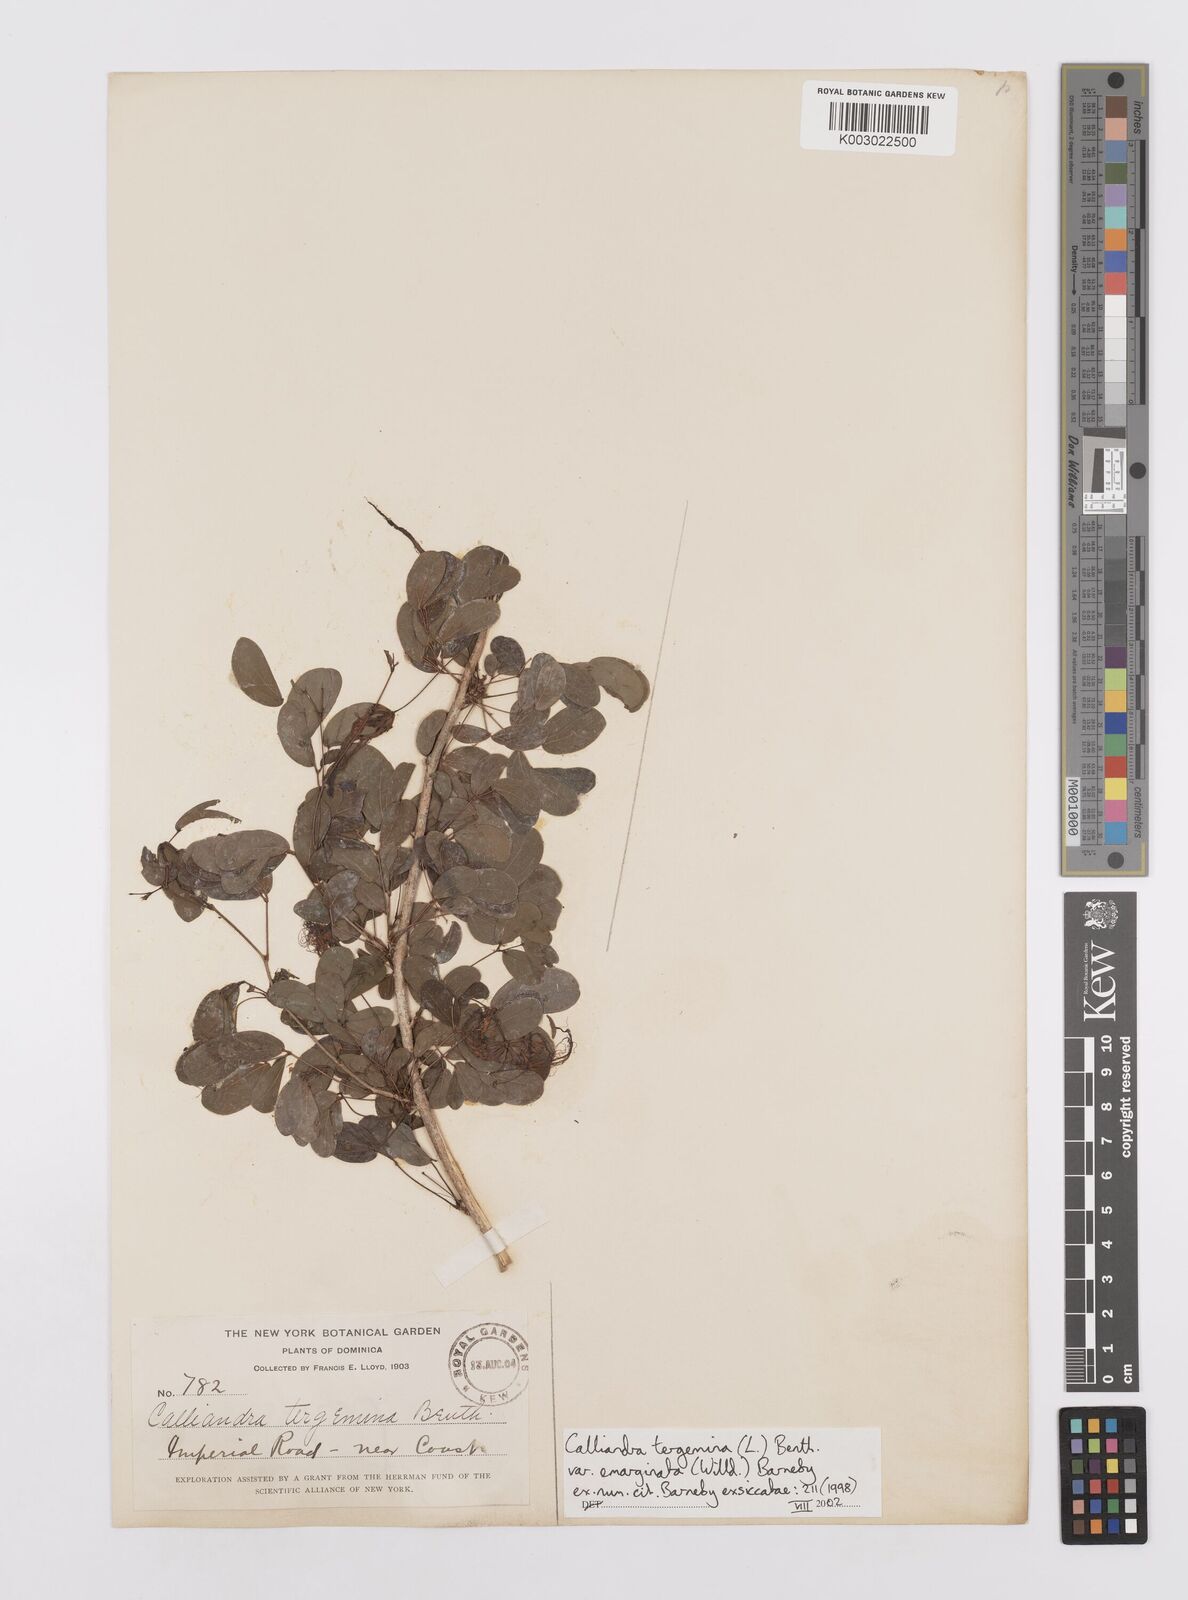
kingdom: Plantae
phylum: Tracheophyta
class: Magnoliopsida
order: Fabales
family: Fabaceae
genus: Calliandra
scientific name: Calliandra tergemina
